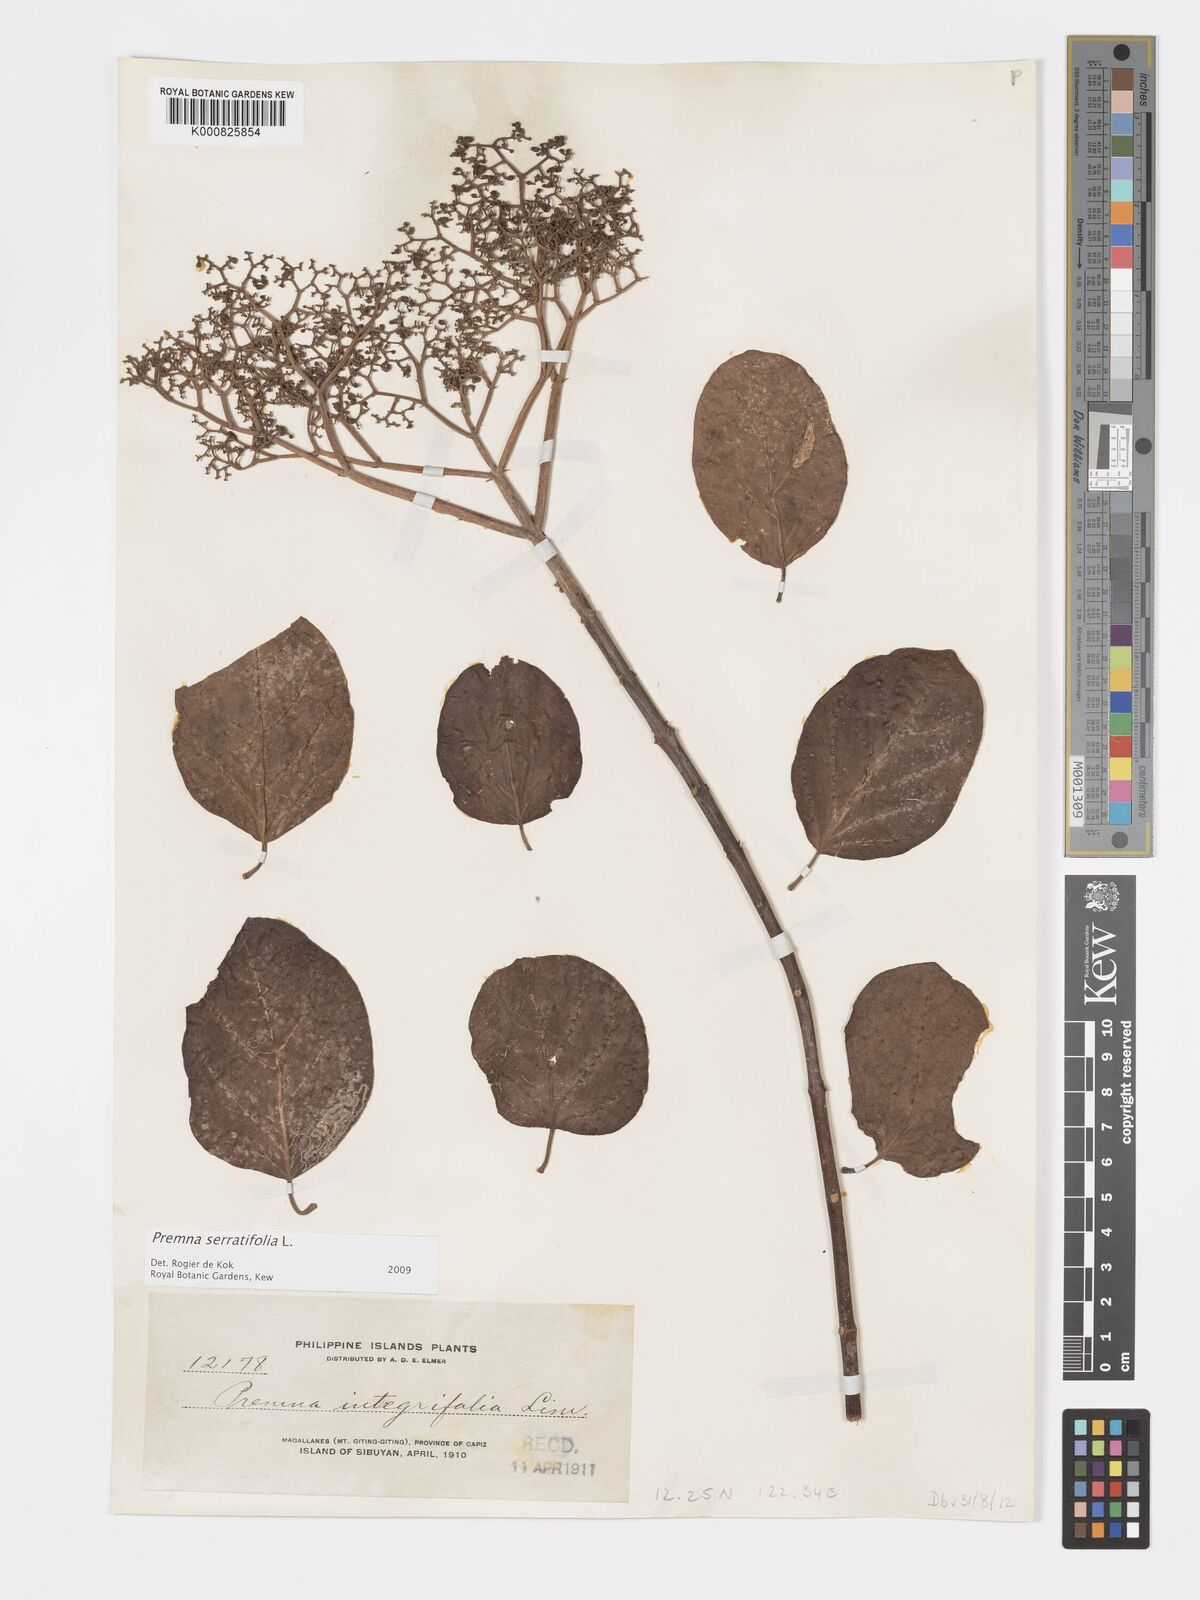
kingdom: Plantae
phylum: Tracheophyta
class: Magnoliopsida
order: Lamiales
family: Lamiaceae
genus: Premna
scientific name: Premna serratifolia
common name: Bastard guelder
